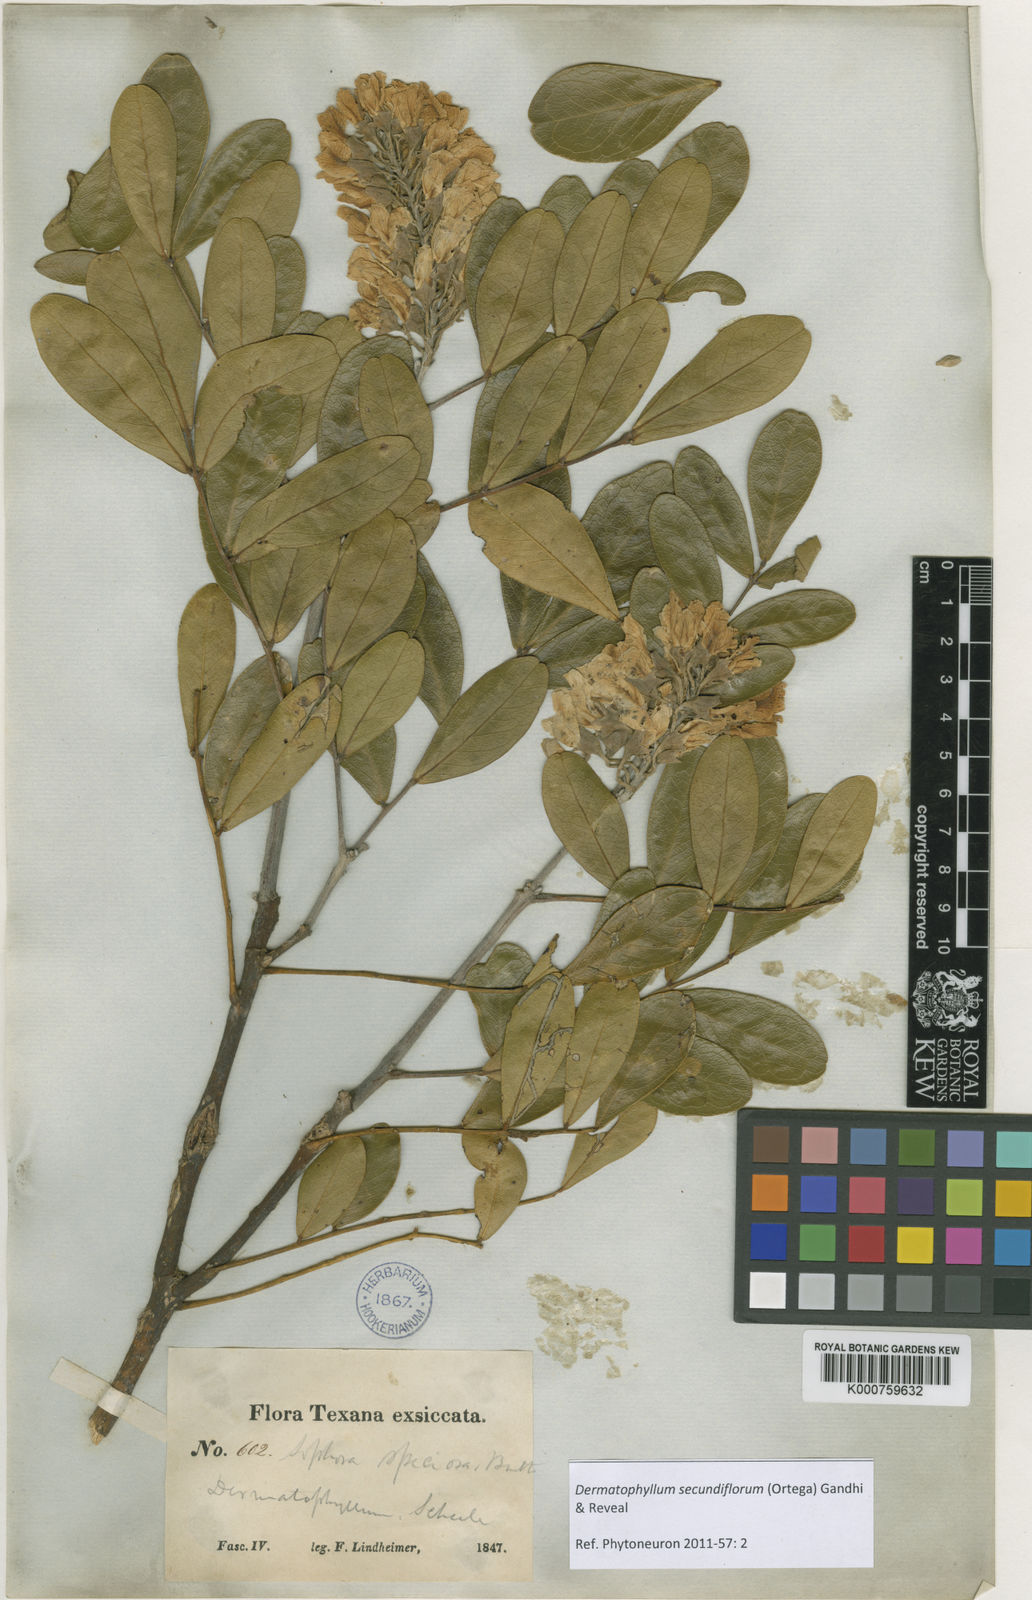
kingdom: Plantae
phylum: Tracheophyta
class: Magnoliopsida
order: Fabales
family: Fabaceae
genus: Dermatophyllum
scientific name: Dermatophyllum secundiflorum
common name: Texas-mountain-laurel
